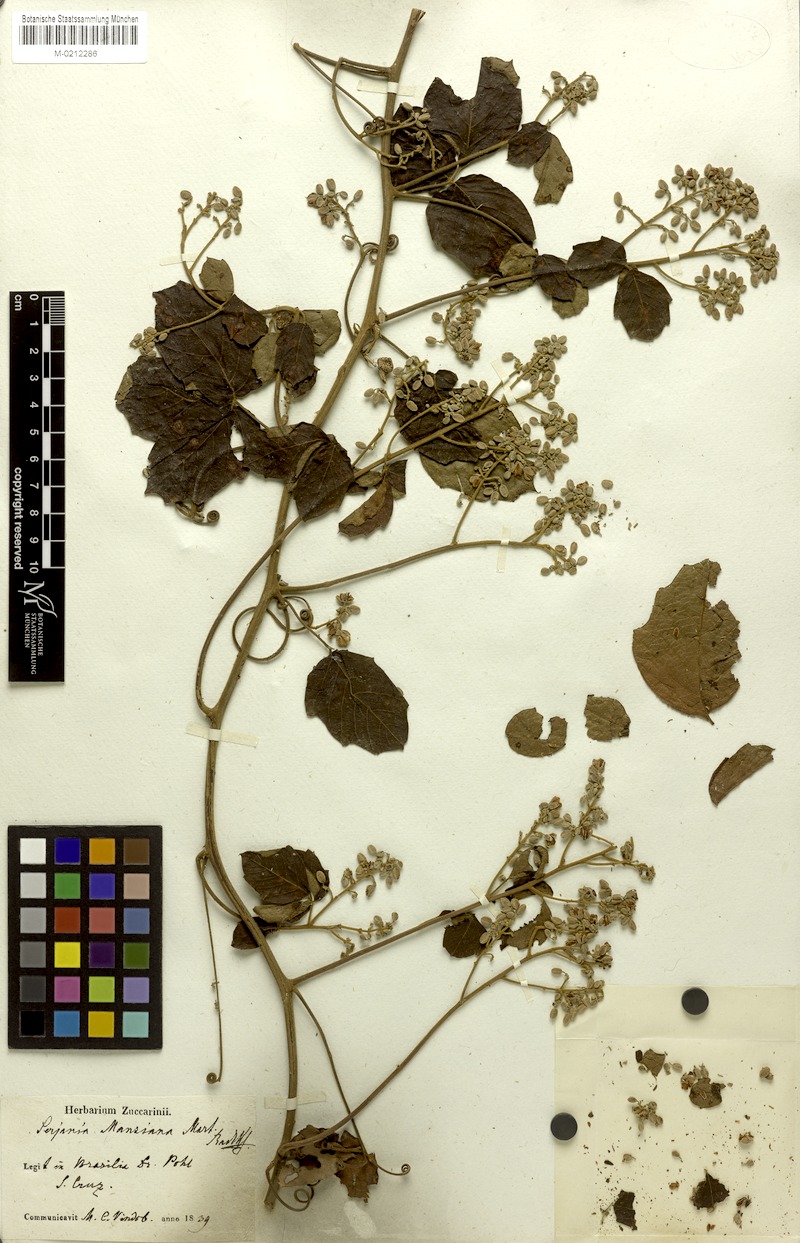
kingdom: Plantae
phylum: Tracheophyta
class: Magnoliopsida
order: Sapindales
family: Sapindaceae
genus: Serjania
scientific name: Serjania mansiana
